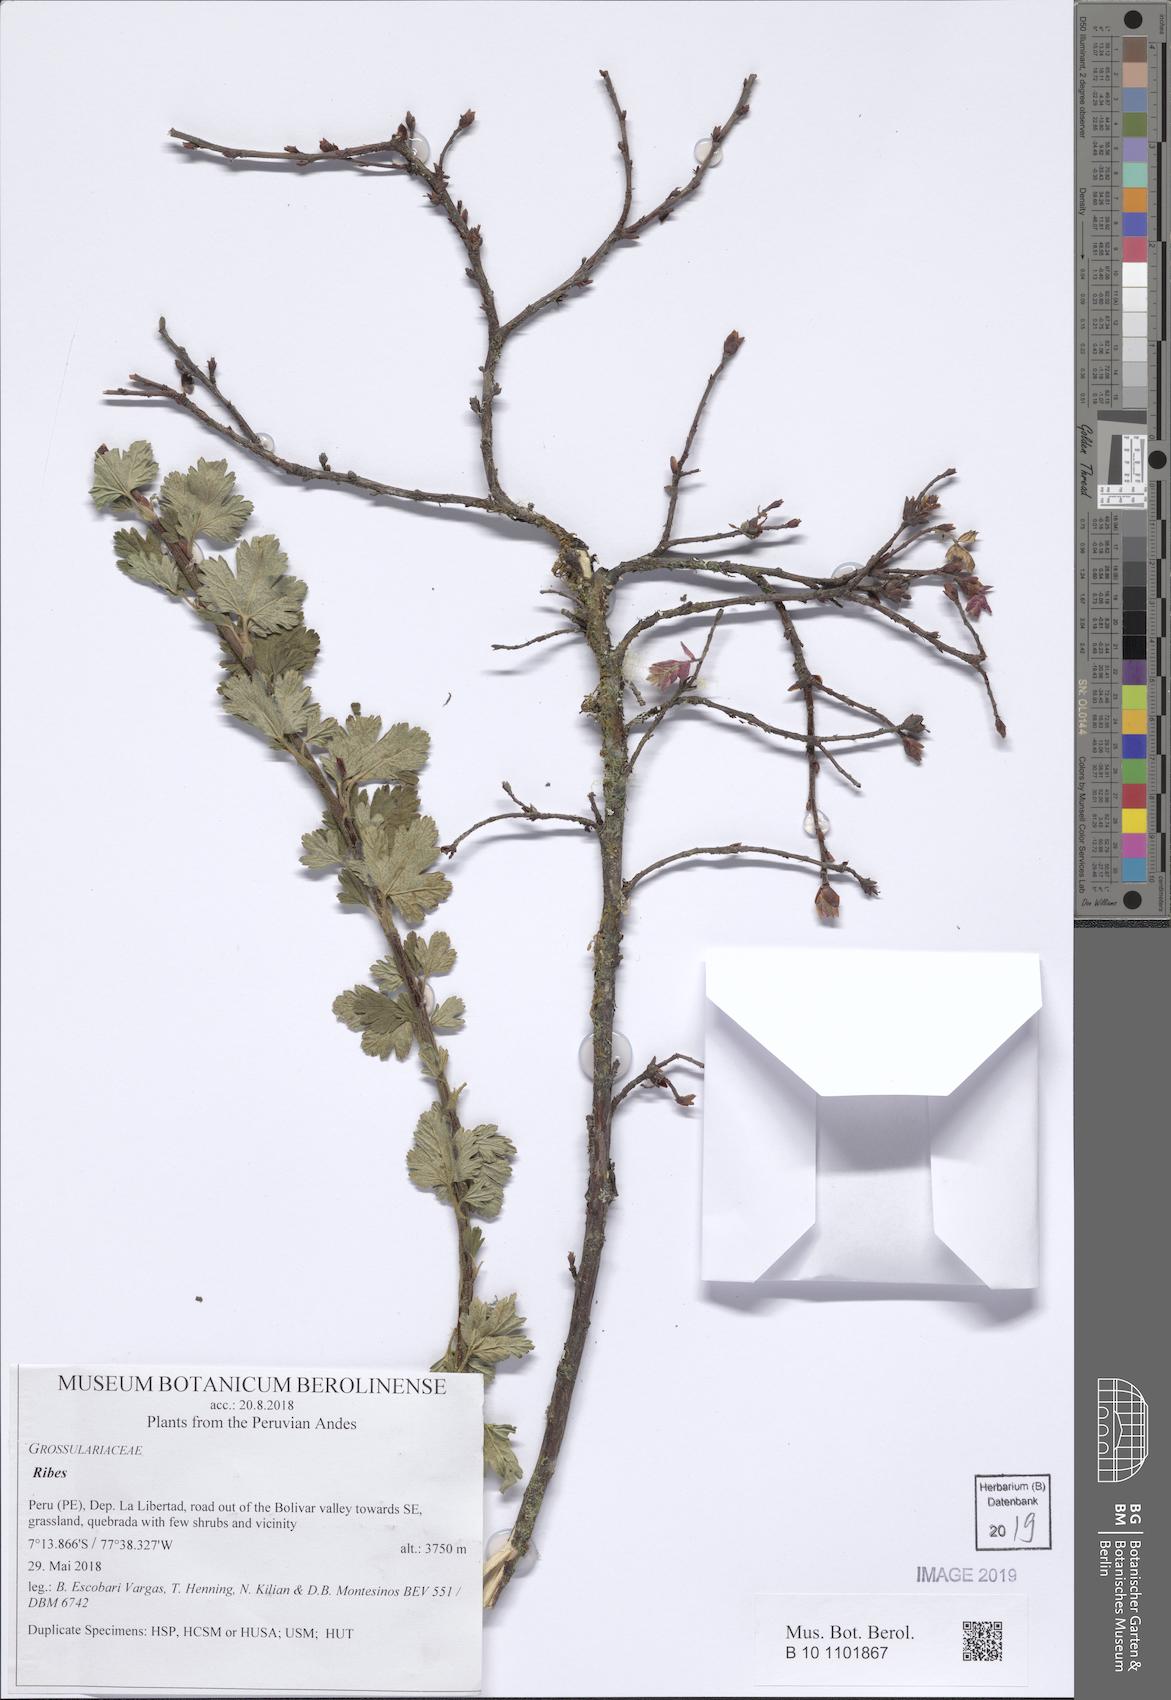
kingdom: Plantae
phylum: Tracheophyta
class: Magnoliopsida
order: Saxifragales
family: Grossulariaceae
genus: Ribes
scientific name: Ribes
